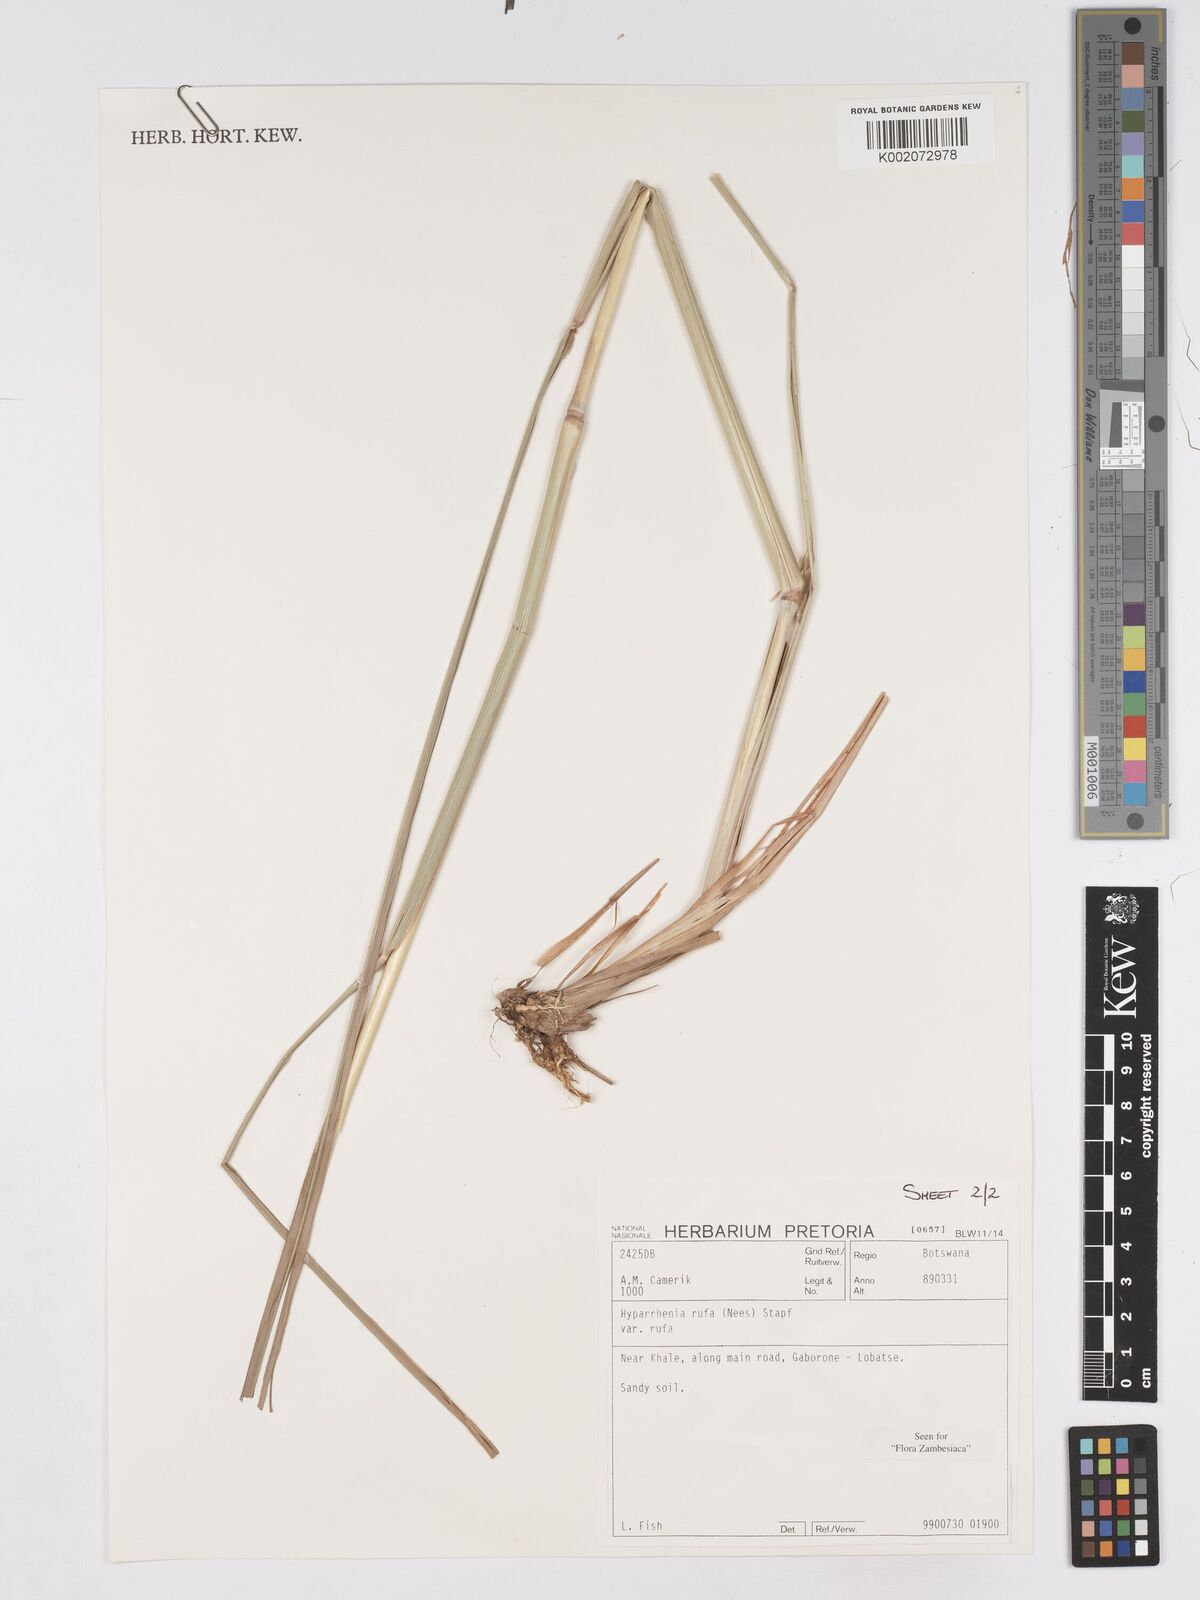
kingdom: Plantae
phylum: Tracheophyta
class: Liliopsida
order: Poales
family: Poaceae
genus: Hyparrhenia
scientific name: Hyparrhenia rufa
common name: Jaraguagrass
